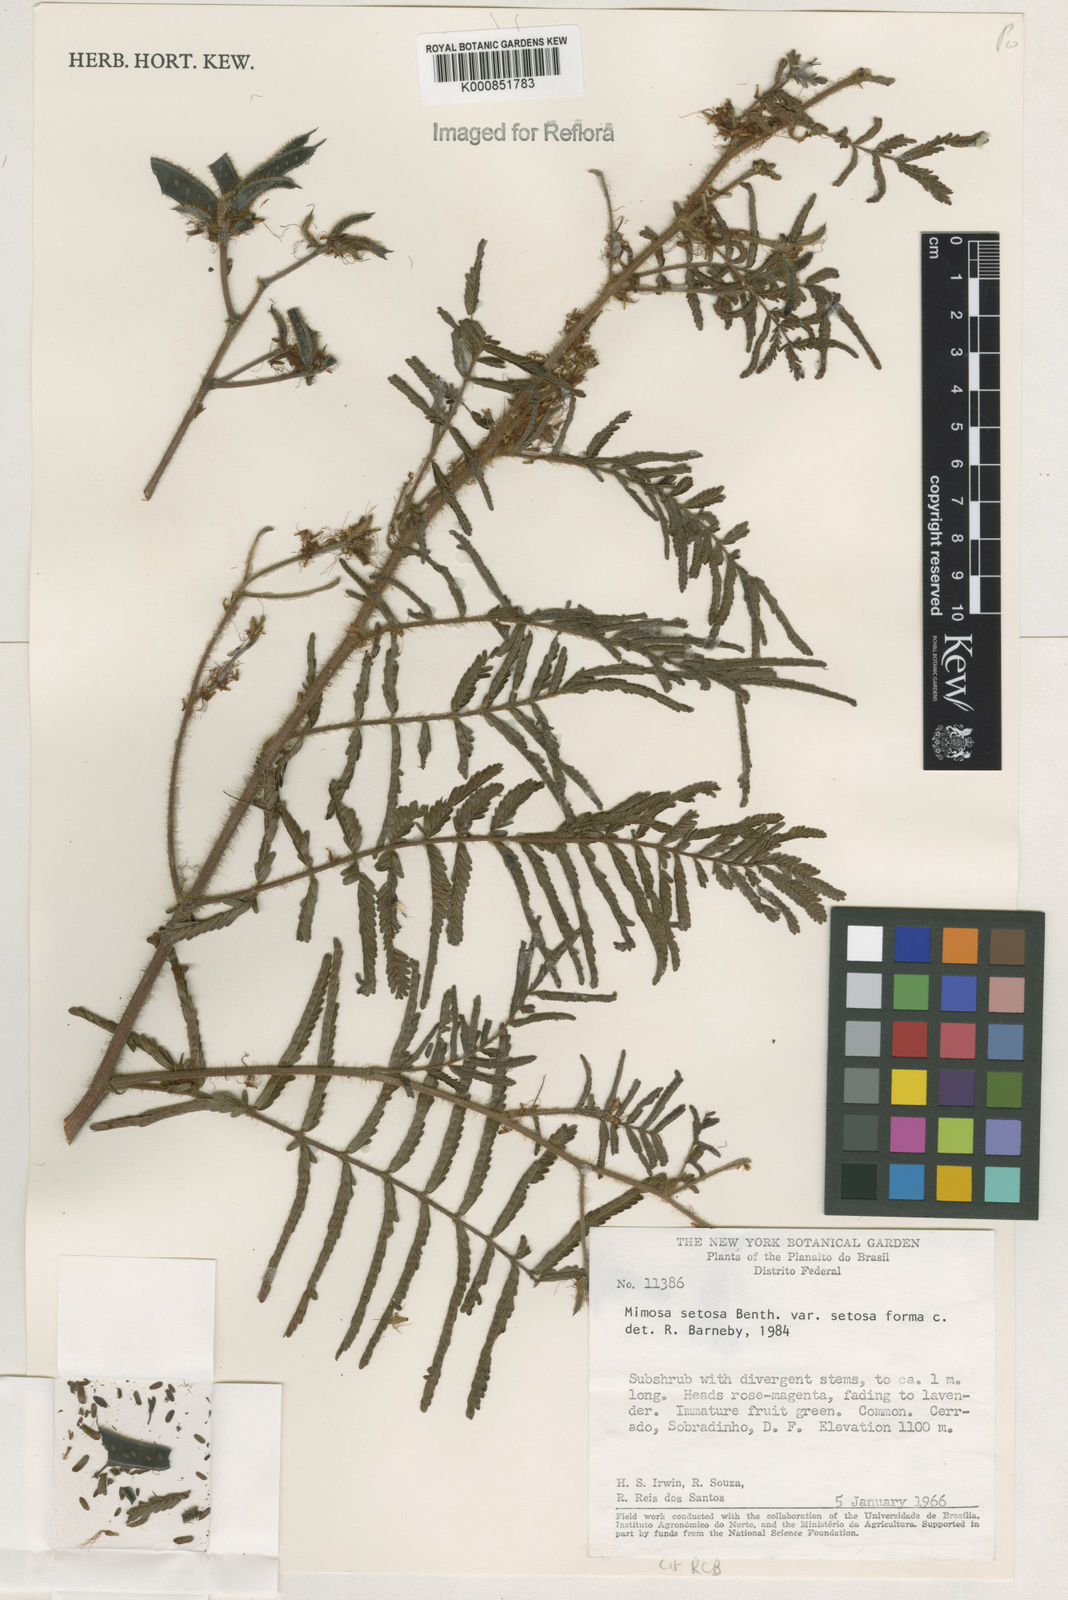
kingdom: Plantae
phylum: Tracheophyta
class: Magnoliopsida
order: Fabales
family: Fabaceae
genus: Mimosa
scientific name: Mimosa urbica
